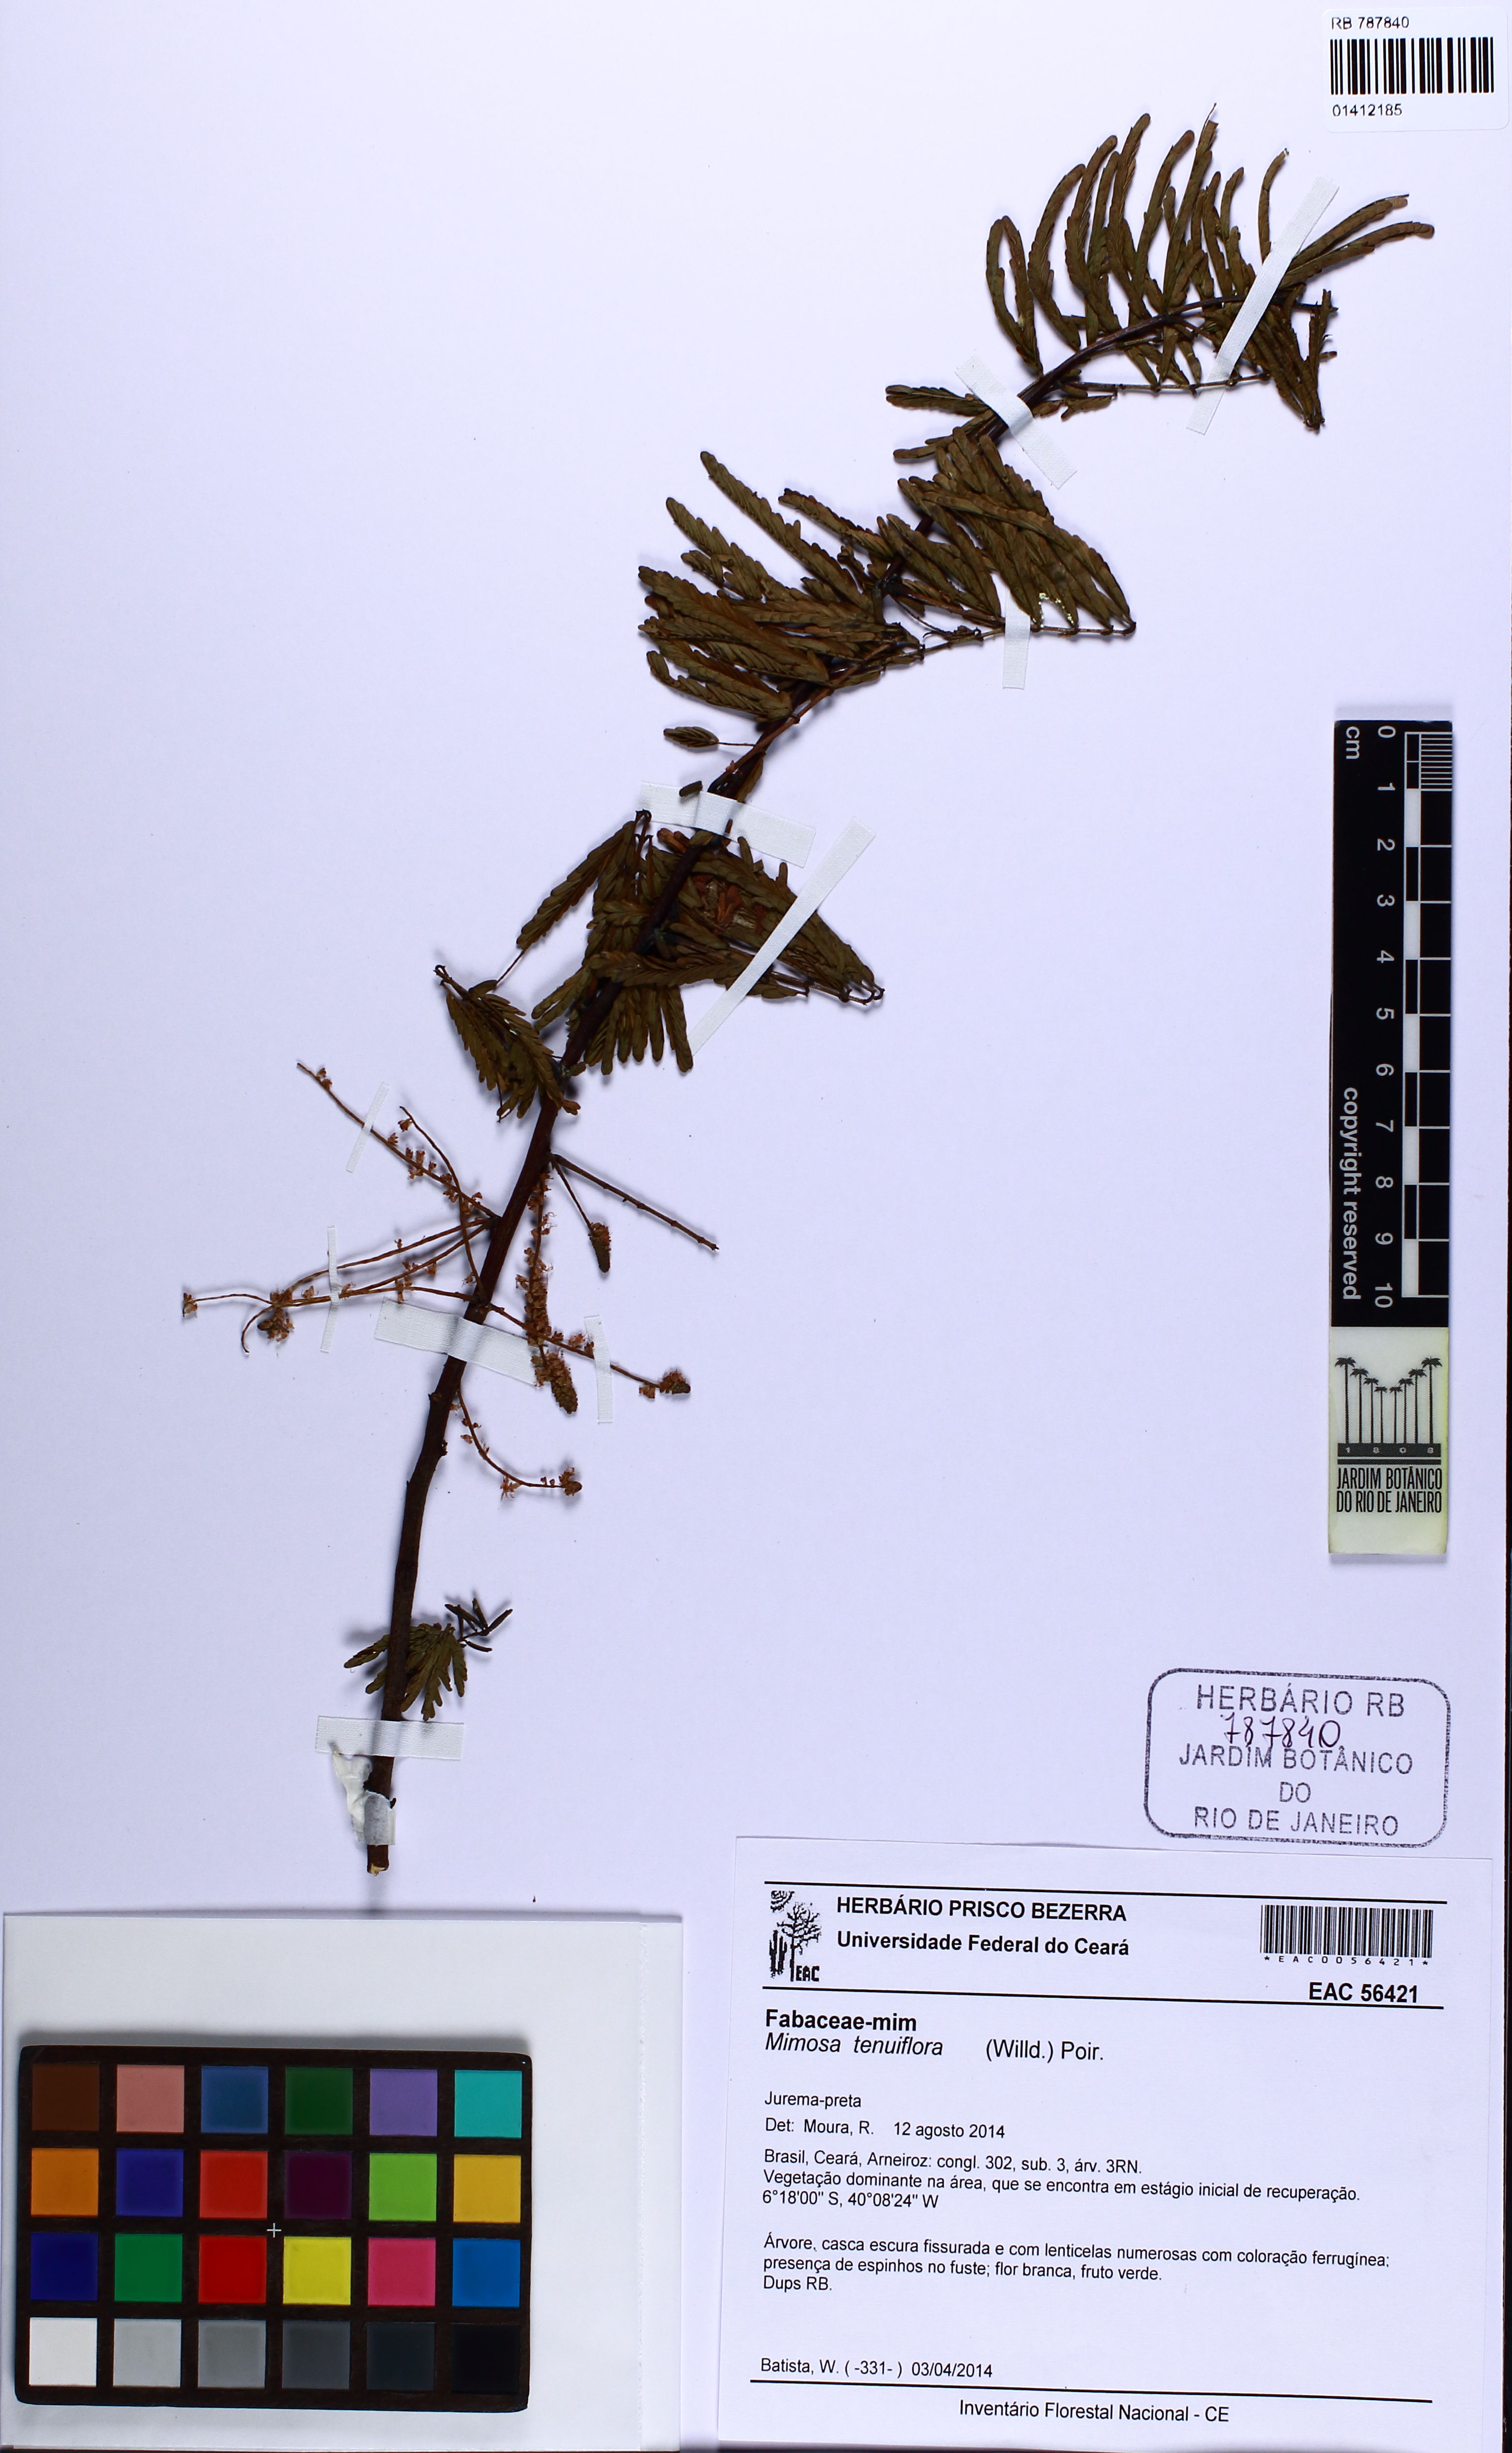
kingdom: Plantae
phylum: Tracheophyta
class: Magnoliopsida
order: Fabales
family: Fabaceae
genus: Mimosa
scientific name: Mimosa tenuiflora
